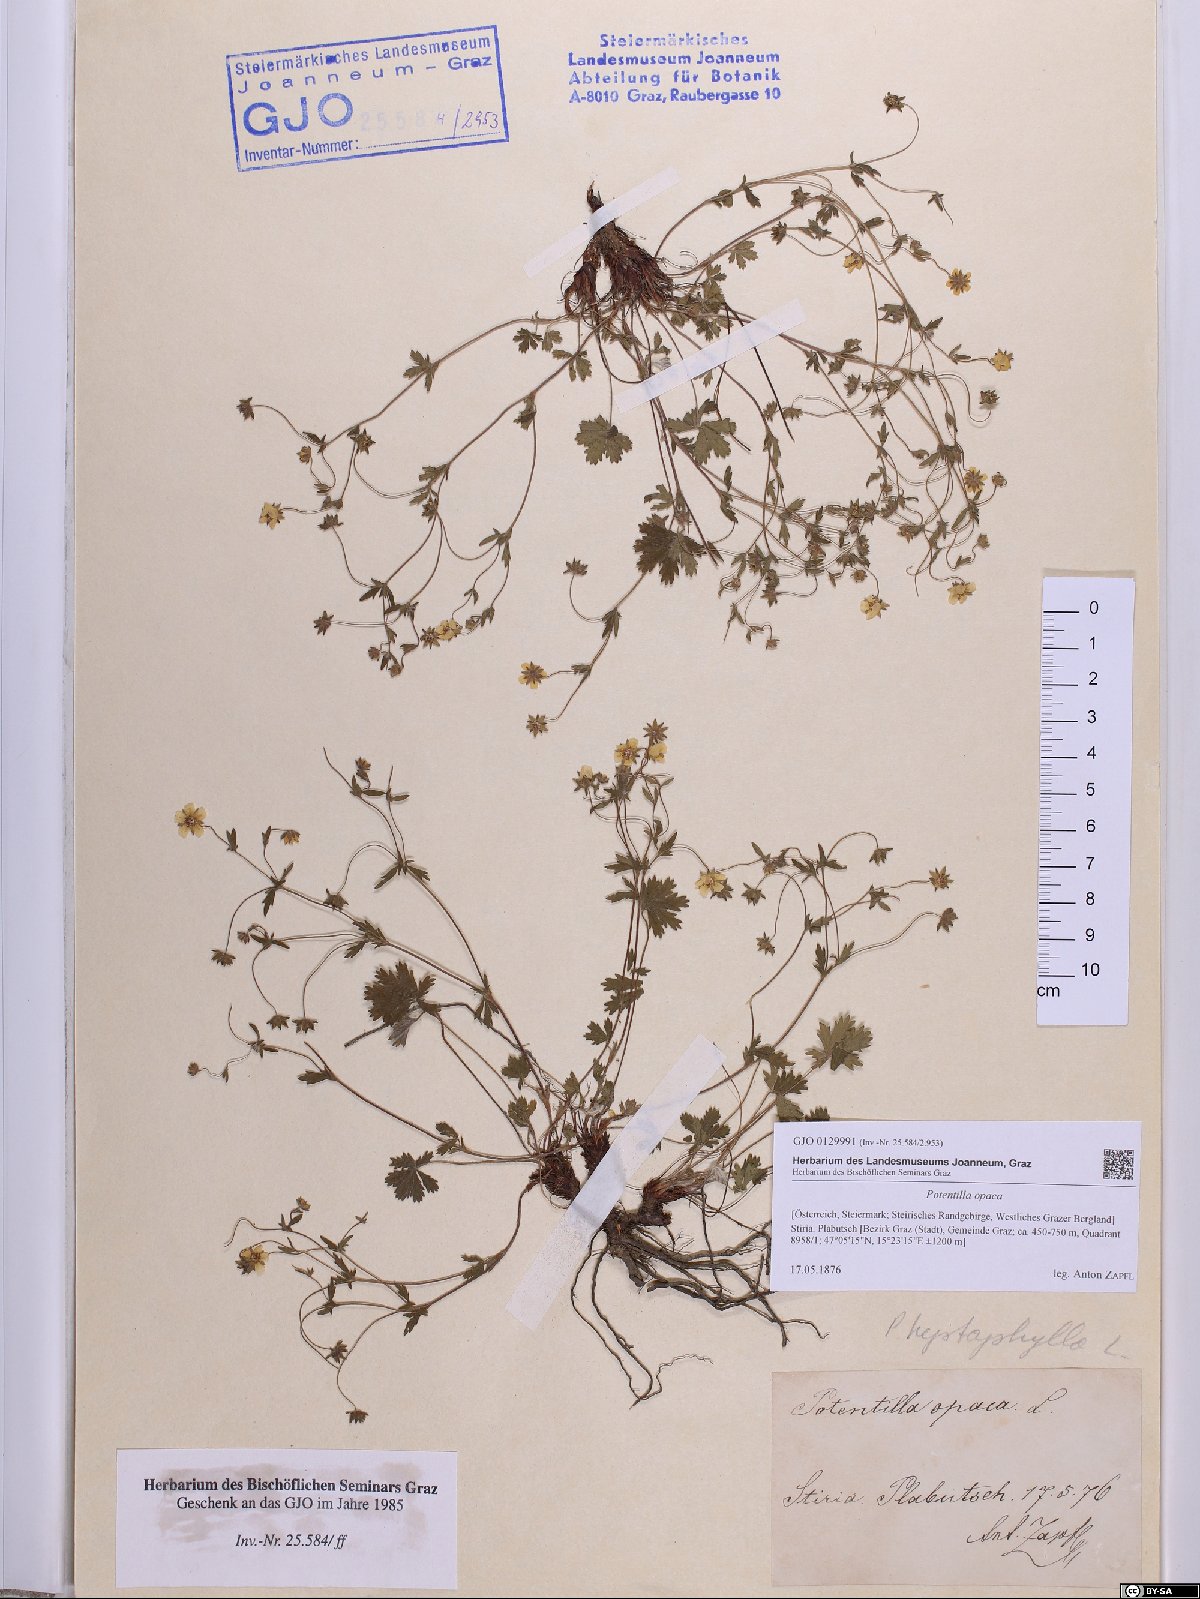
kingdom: Plantae
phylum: Tracheophyta
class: Magnoliopsida
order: Rosales
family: Rosaceae
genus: Potentilla
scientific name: Potentilla
